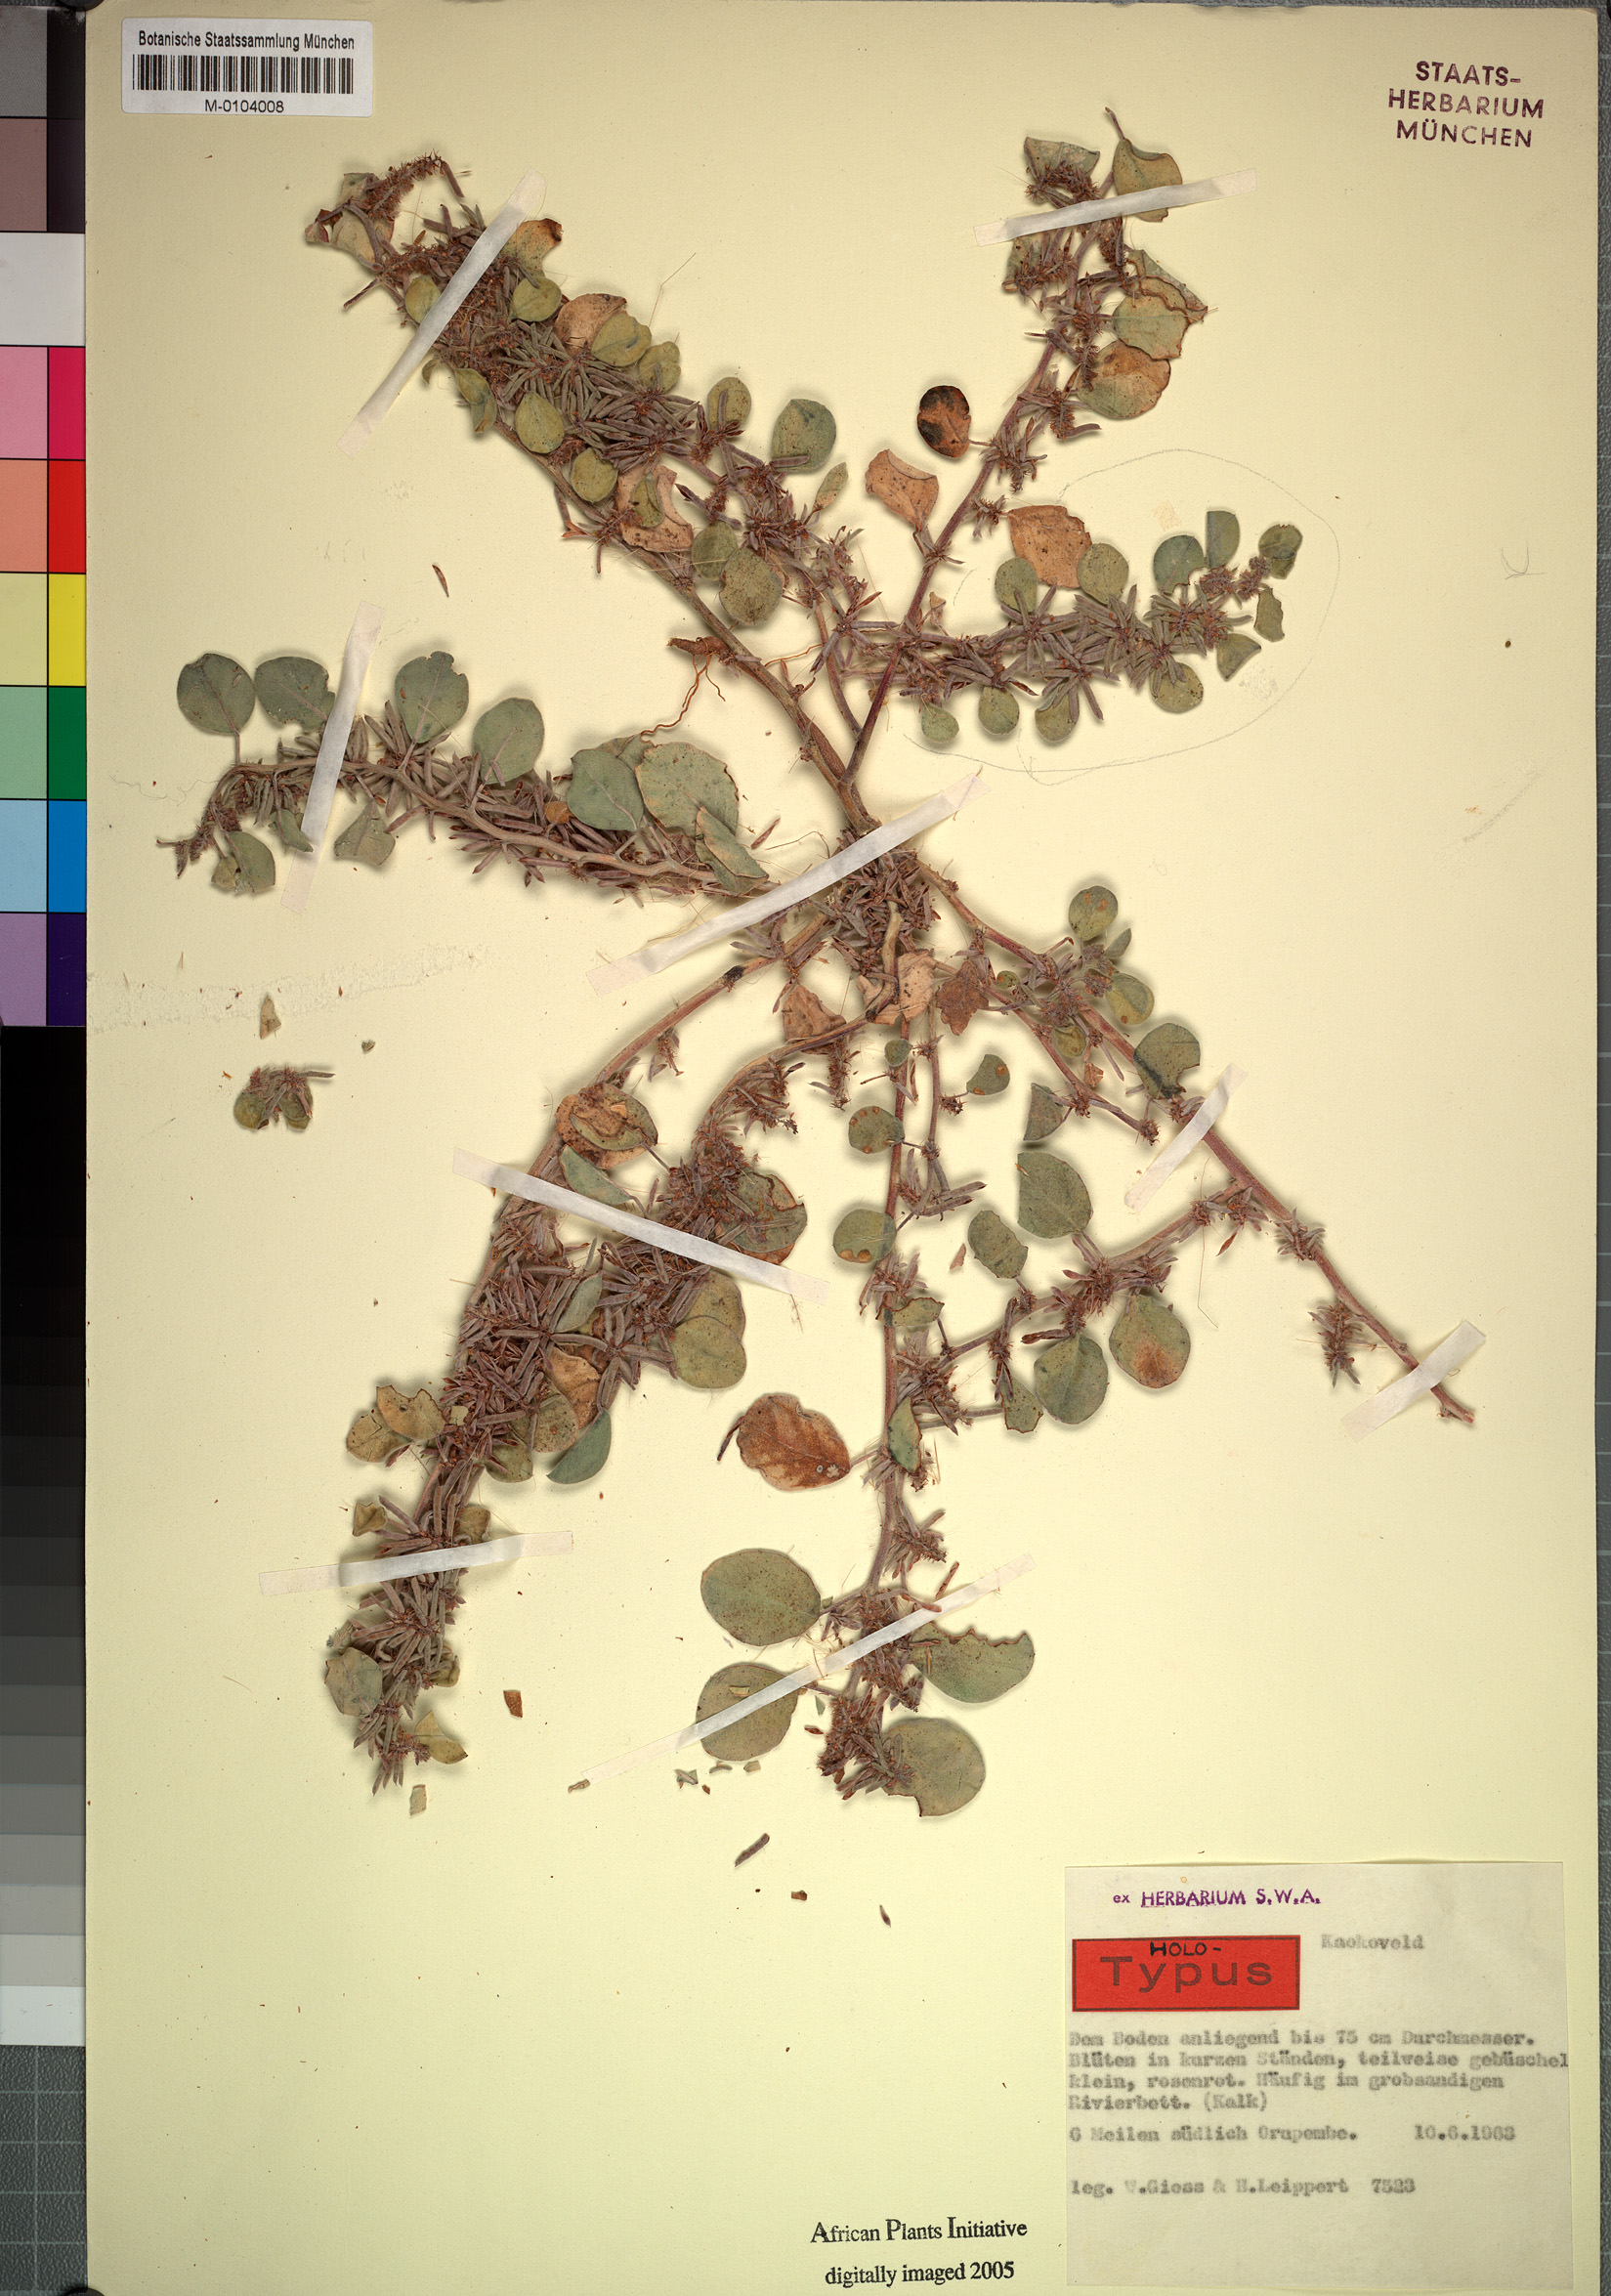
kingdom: Plantae
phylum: Tracheophyta
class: Magnoliopsida
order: Fabales
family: Fabaceae
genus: Indigofera
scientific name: Indigofera anabibensis
